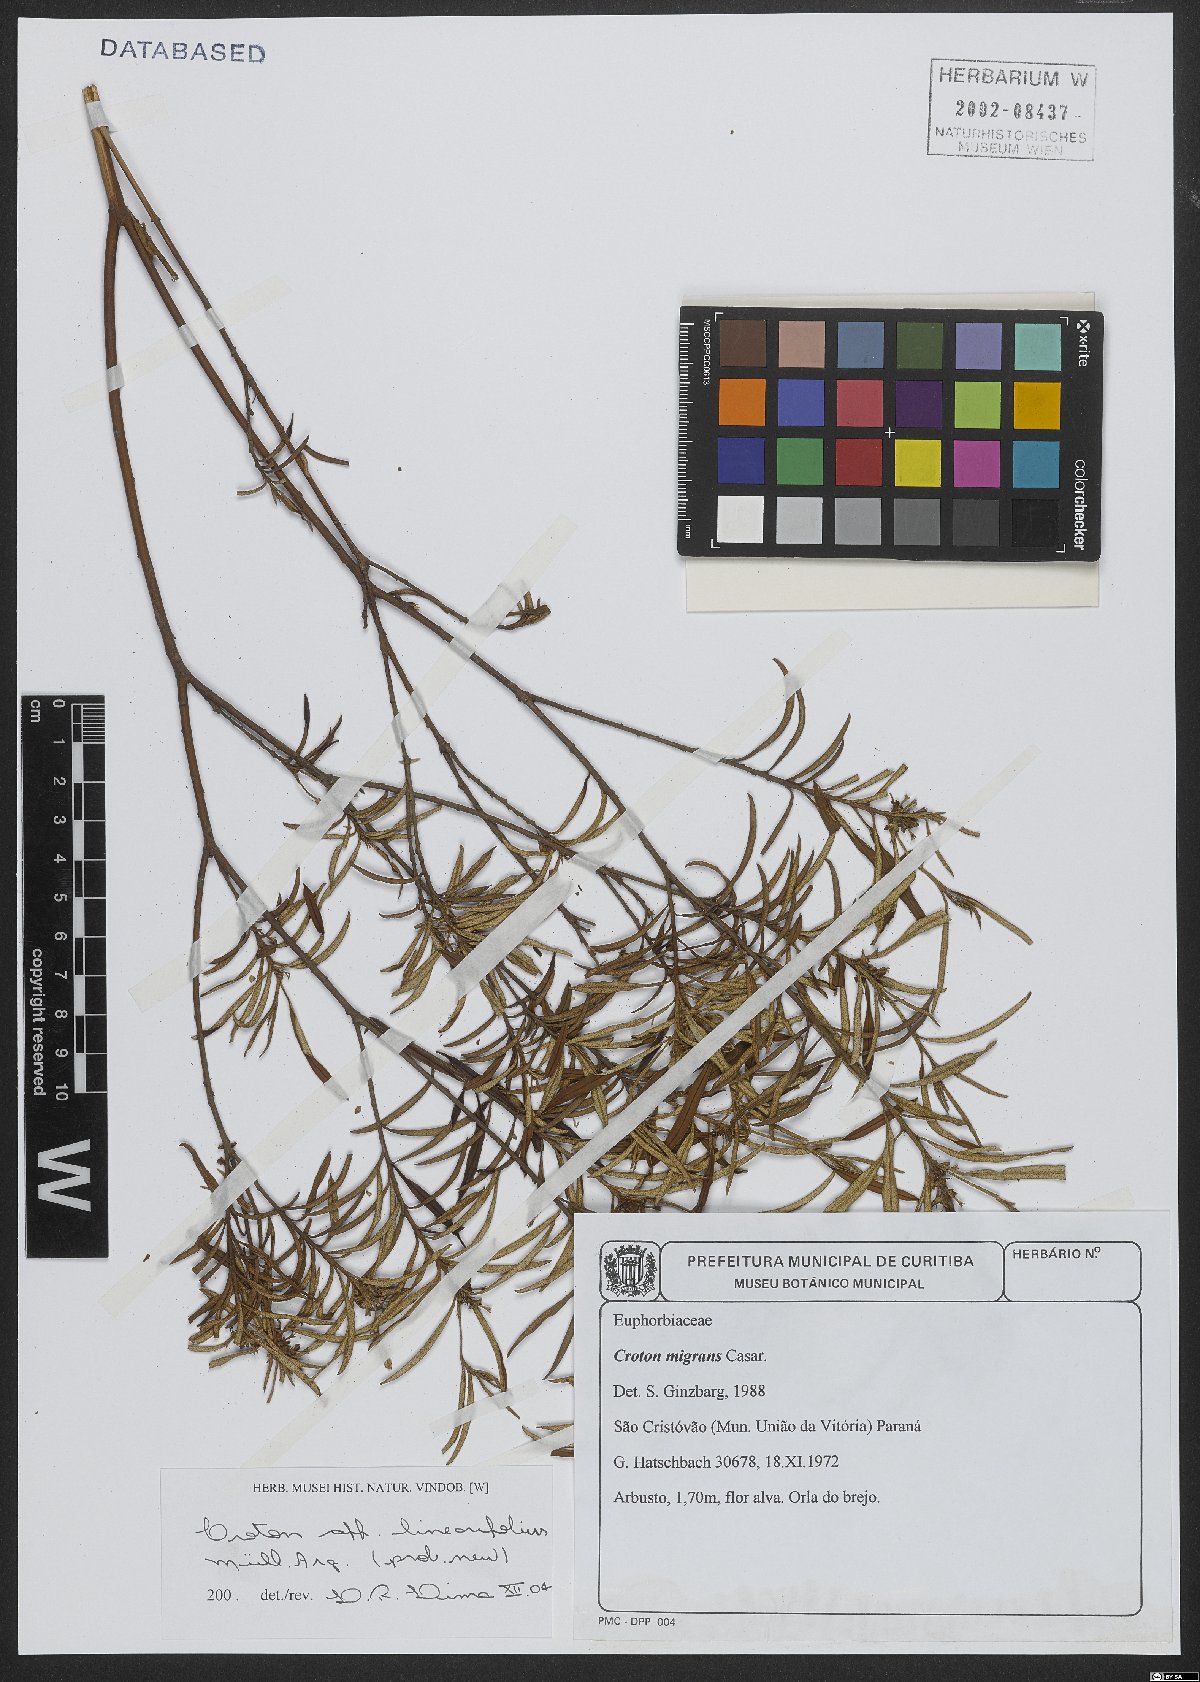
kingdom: Plantae
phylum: Tracheophyta
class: Magnoliopsida
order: Malpighiales
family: Euphorbiaceae
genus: Croton
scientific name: Croton linearifolius
